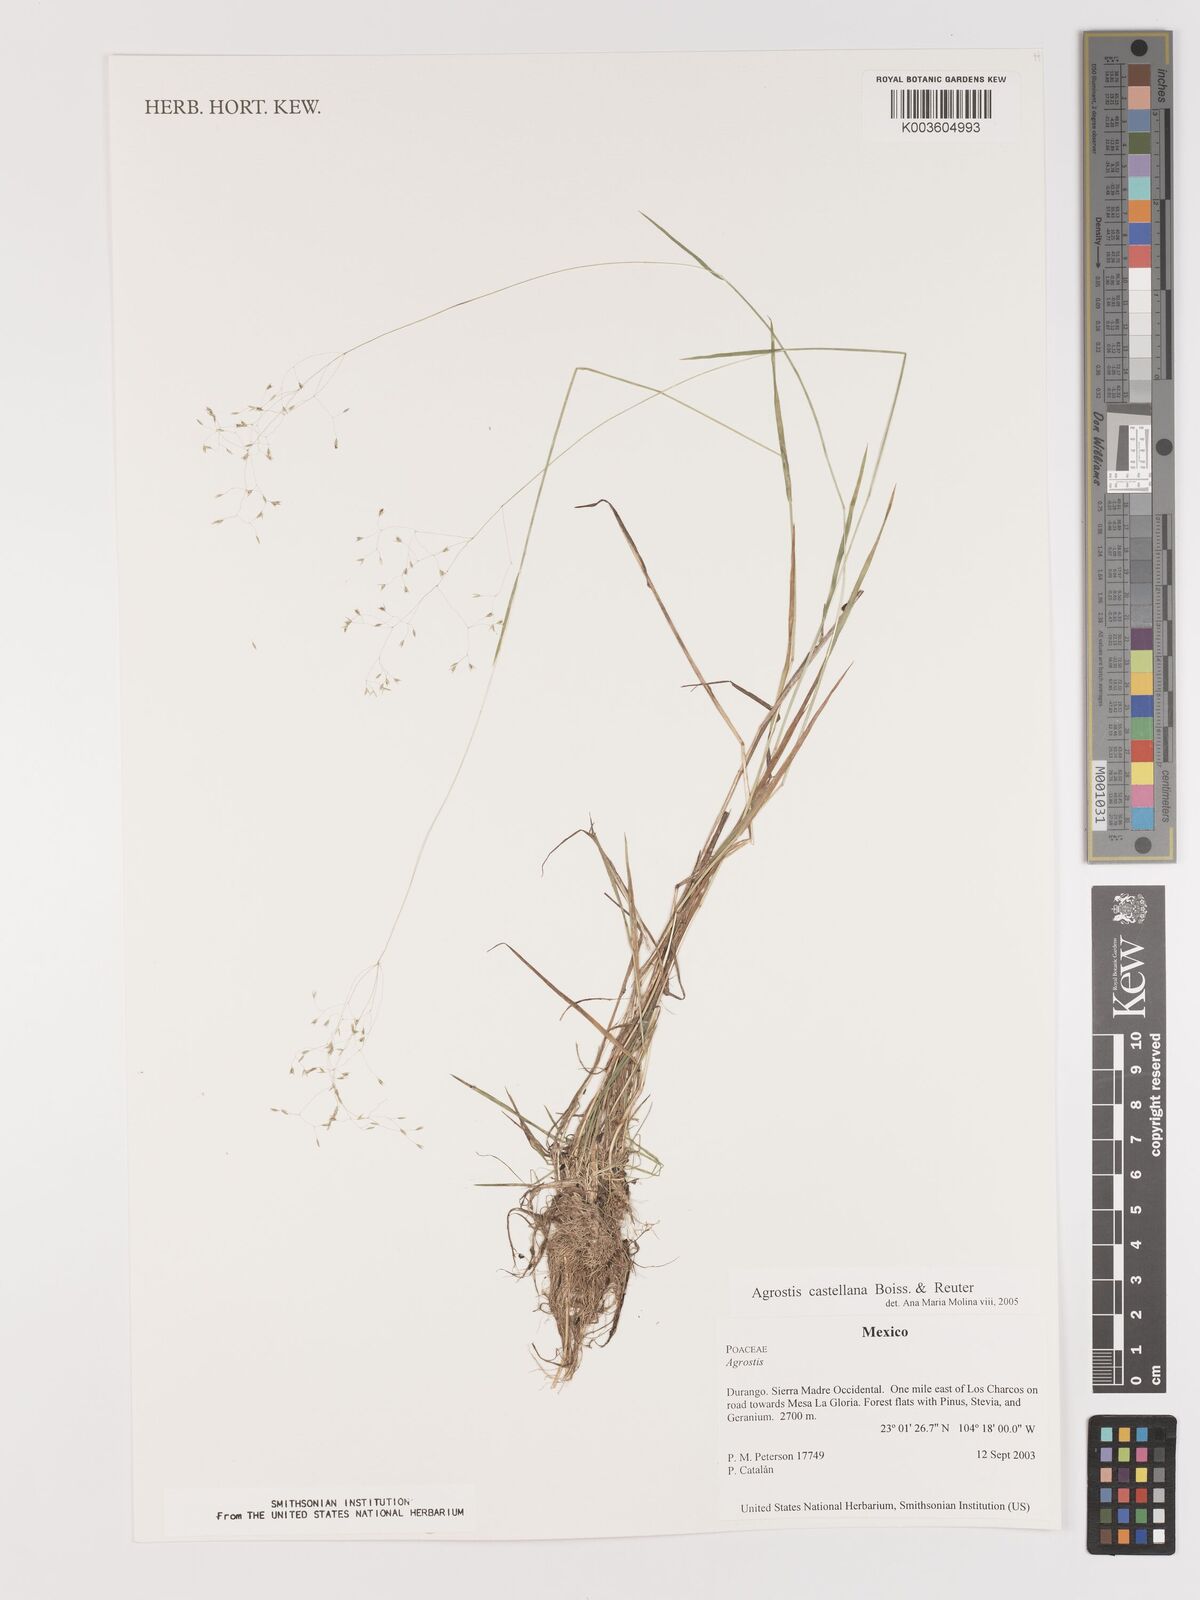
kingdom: Plantae
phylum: Tracheophyta
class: Liliopsida
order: Poales
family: Poaceae
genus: Agrostis
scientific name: Agrostis castellana
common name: Highland bent
